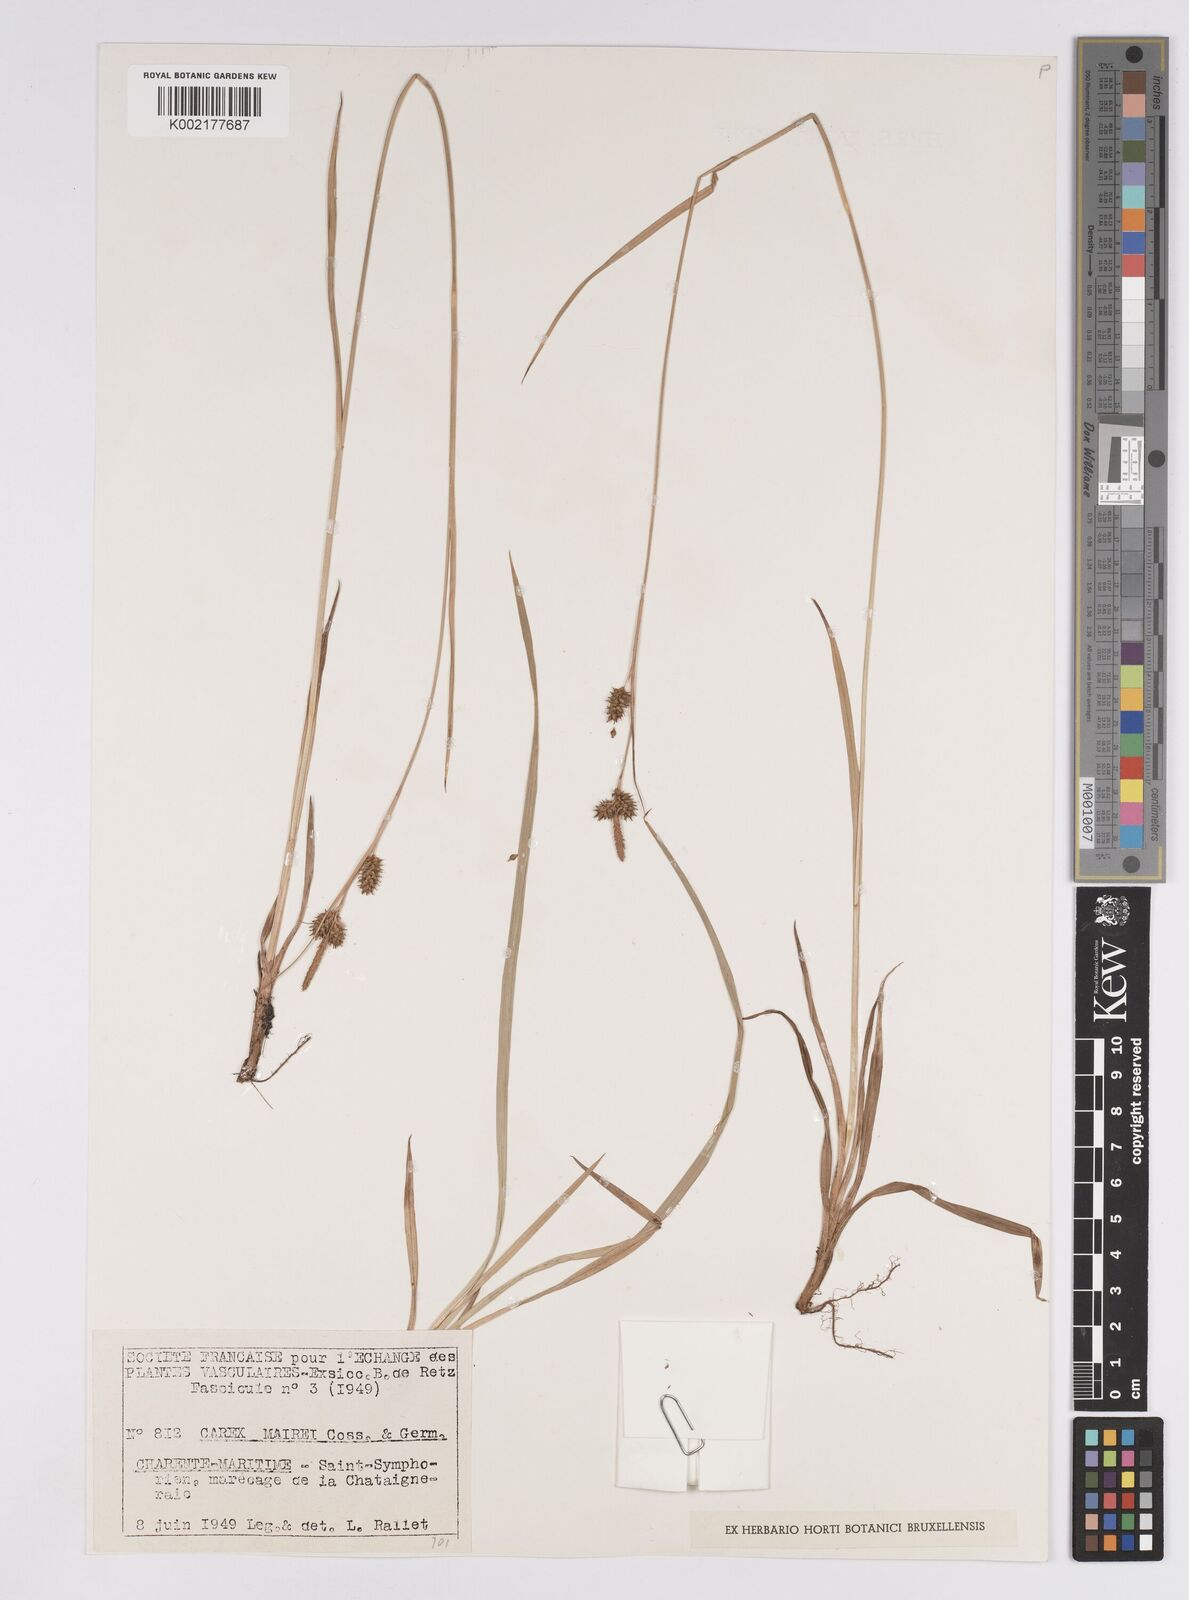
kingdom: Plantae
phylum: Tracheophyta
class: Liliopsida
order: Poales
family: Cyperaceae
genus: Carex
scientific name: Carex mairei
